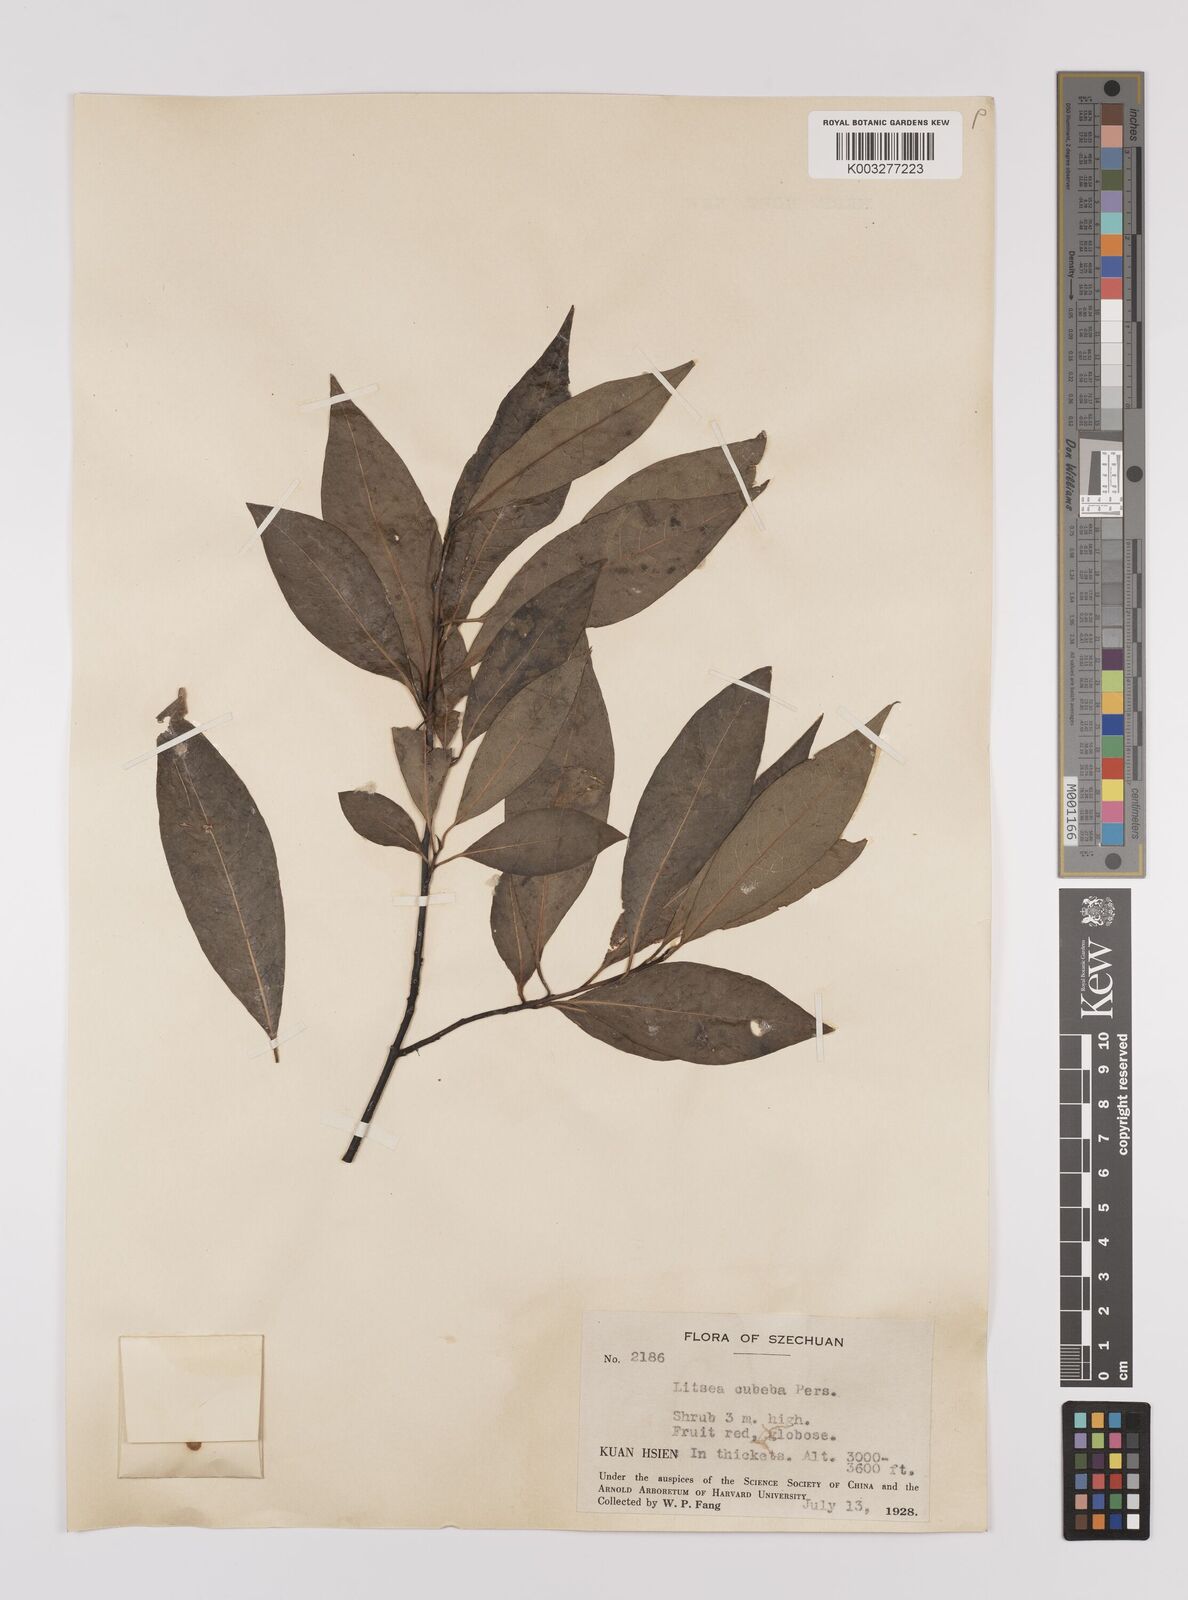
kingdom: Plantae
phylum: Tracheophyta
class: Magnoliopsida
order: Laurales
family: Lauraceae
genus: Litsea
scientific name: Litsea cubeba
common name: Mountain-pepper
